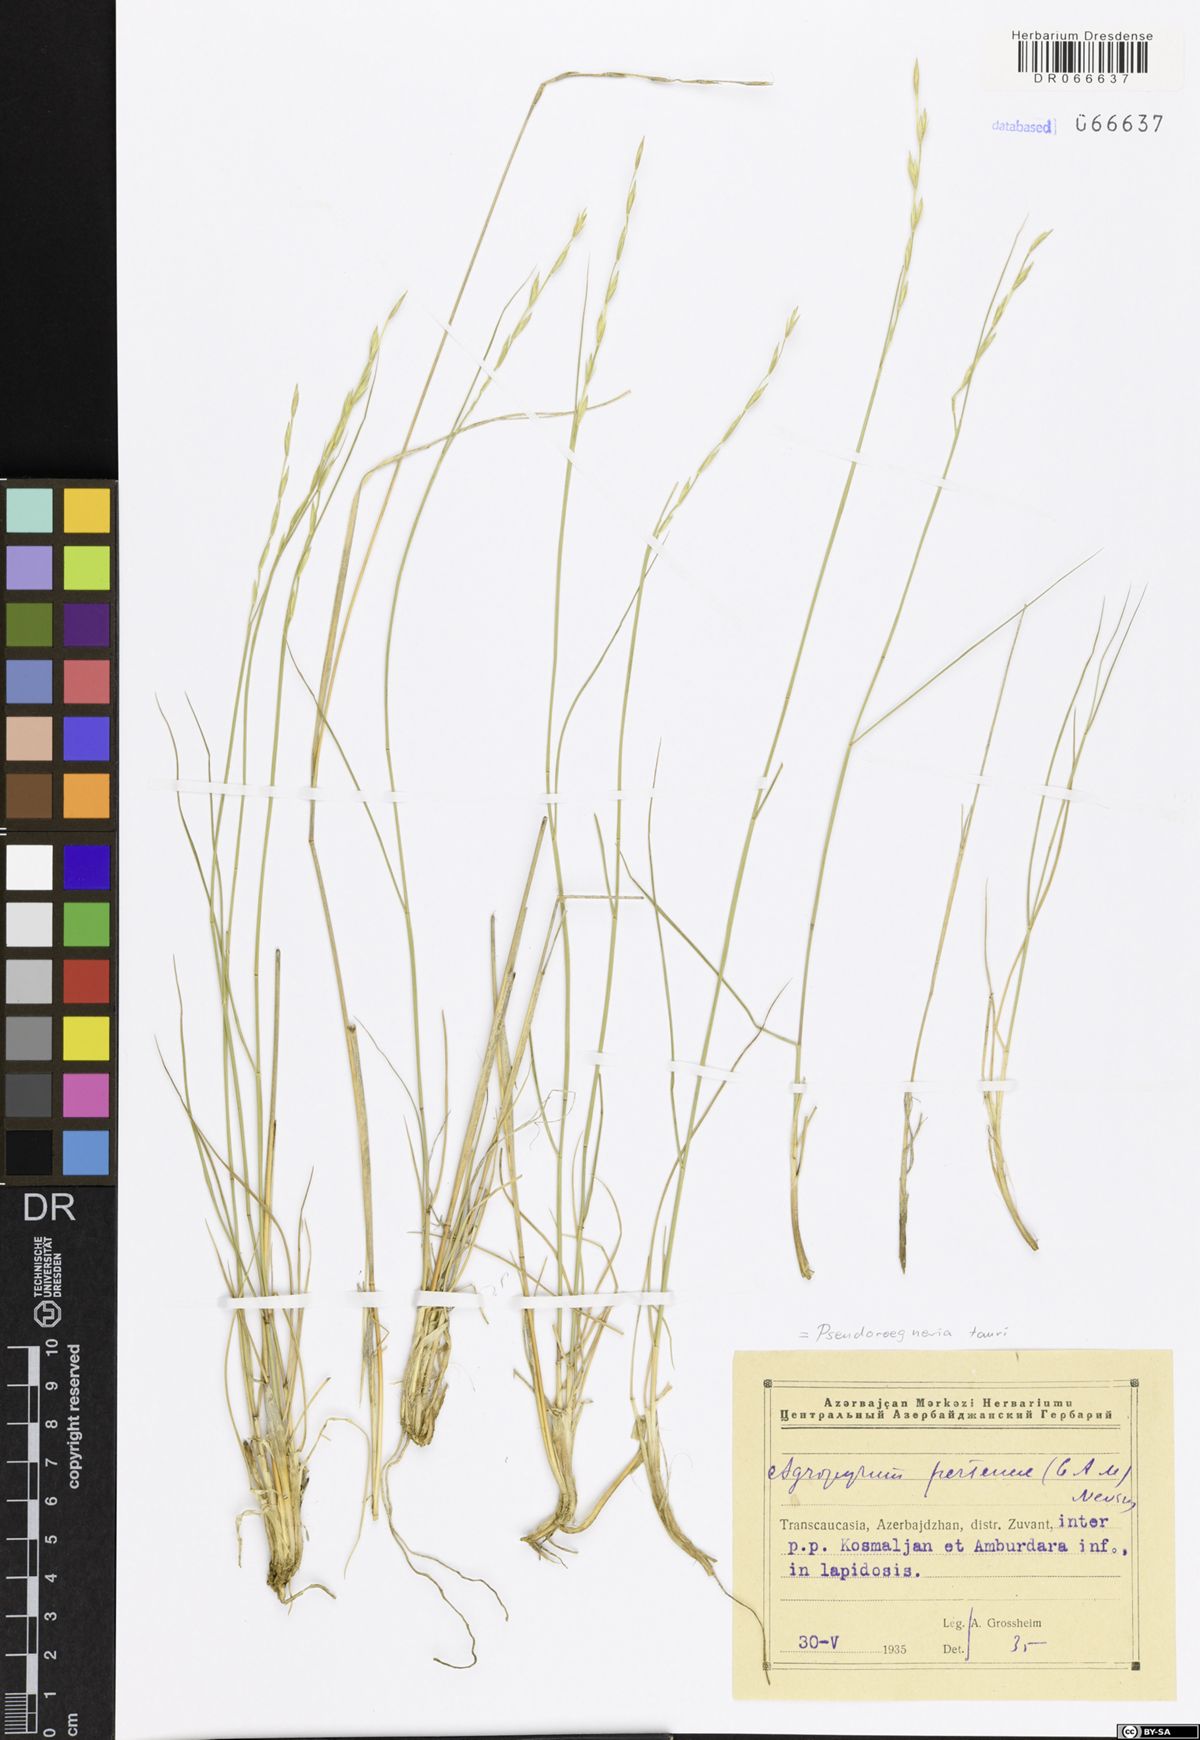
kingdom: Plantae
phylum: Tracheophyta
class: Liliopsida
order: Poales
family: Poaceae
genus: Pseudoroegneria
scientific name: Pseudoroegneria tauri
